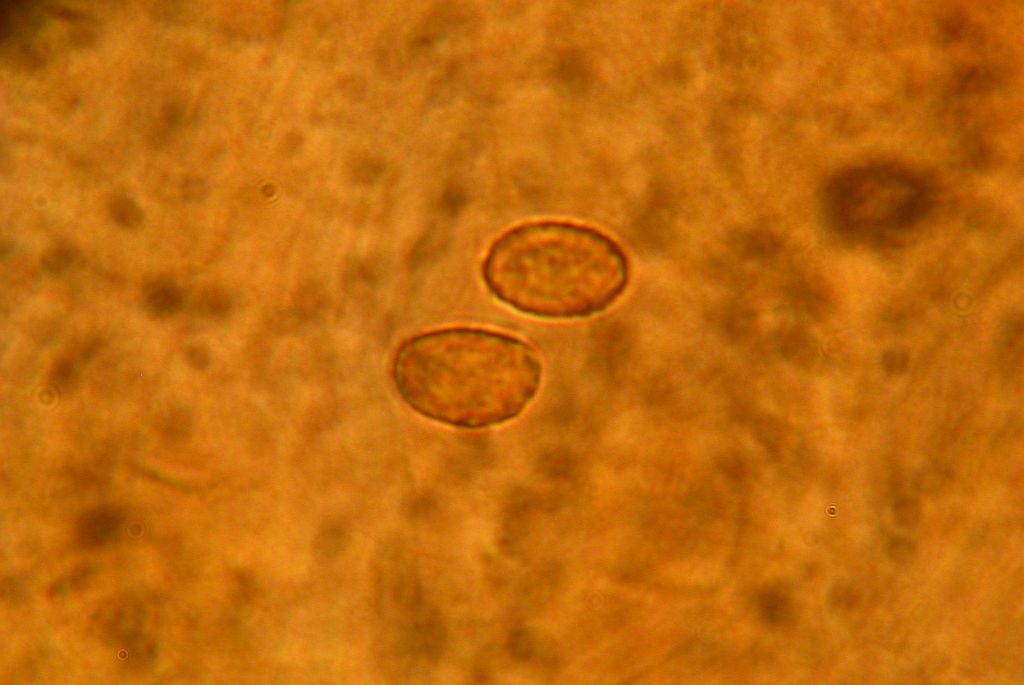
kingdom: Fungi
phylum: Basidiomycota
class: Agaricomycetes
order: Agaricales
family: Cortinariaceae
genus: Cortinarius
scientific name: Cortinarius kauffmanianus
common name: plantage-slørhat
